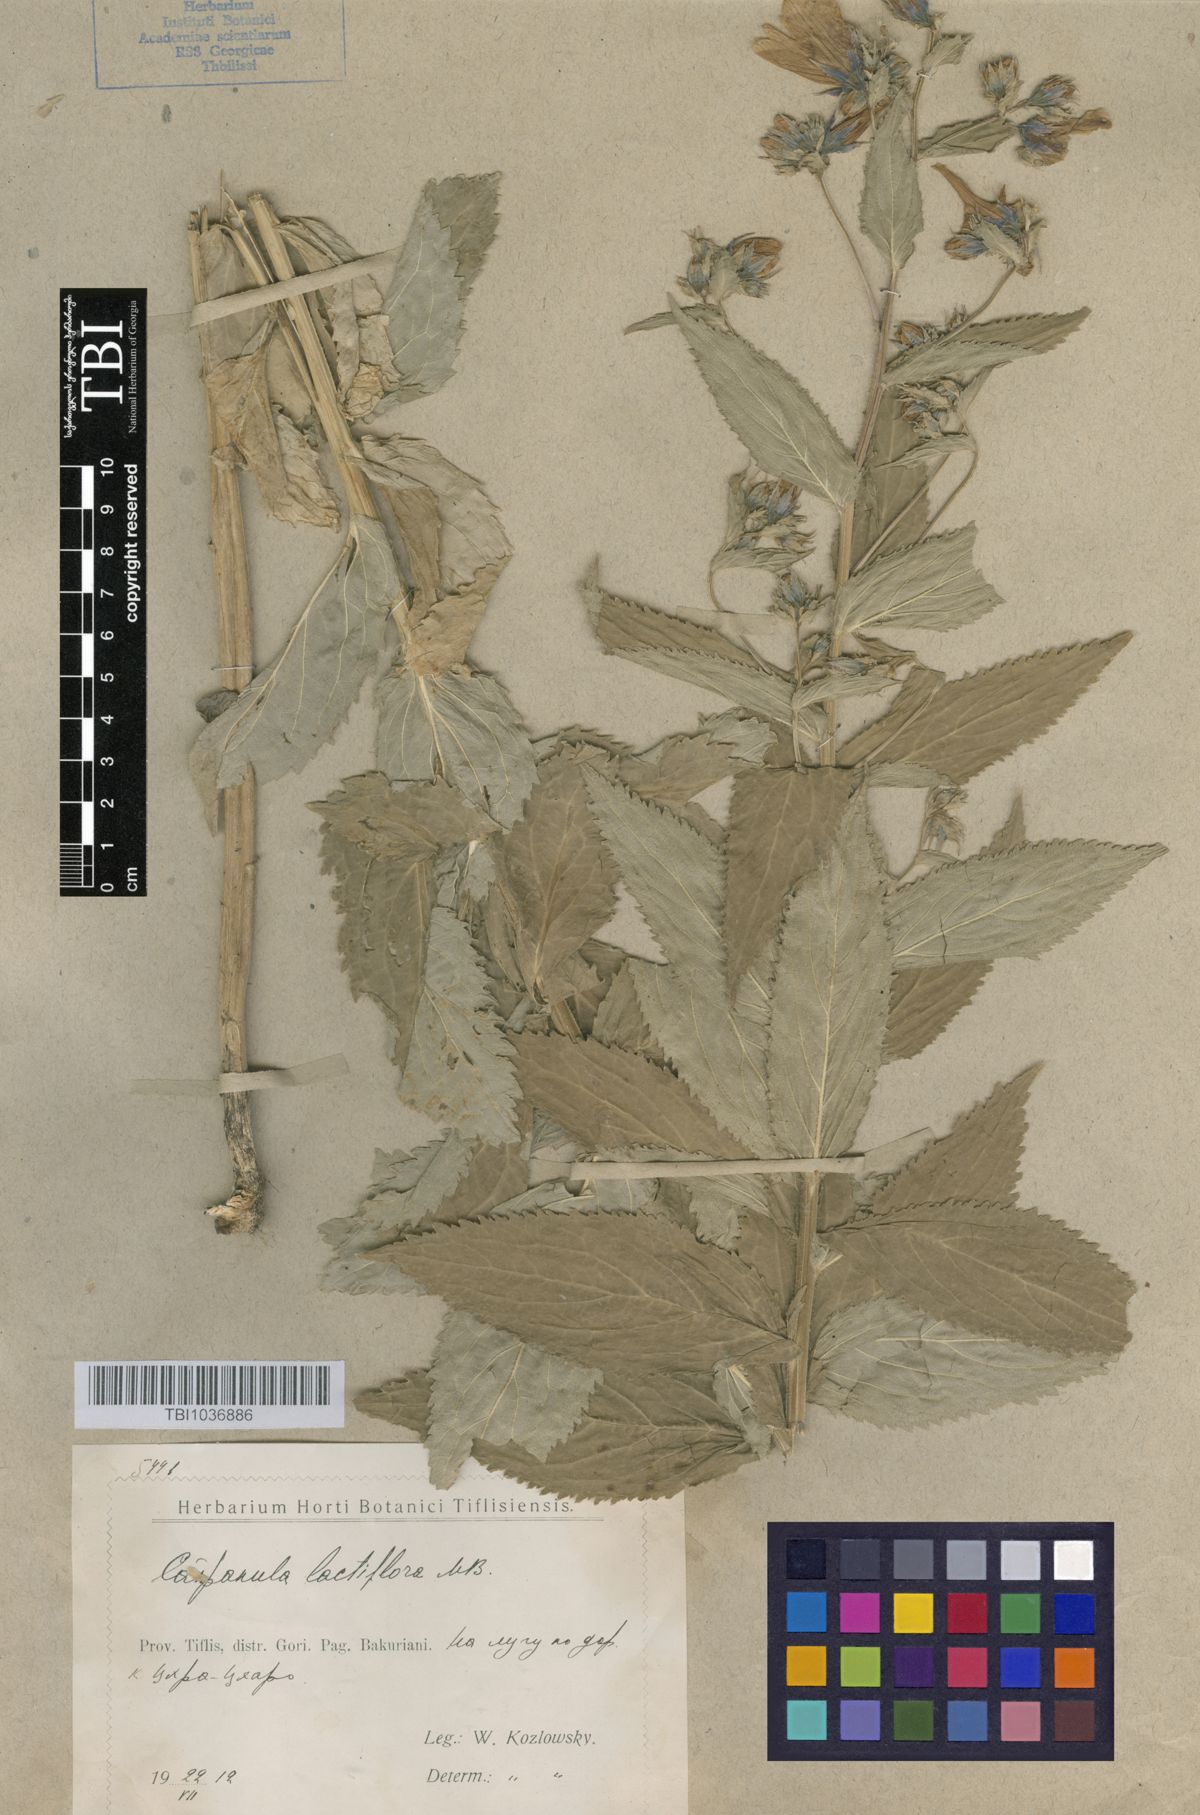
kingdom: Plantae
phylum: Tracheophyta
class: Magnoliopsida
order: Asterales
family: Campanulaceae
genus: Campanula
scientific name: Campanula lactiflora
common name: Milky bellflower
